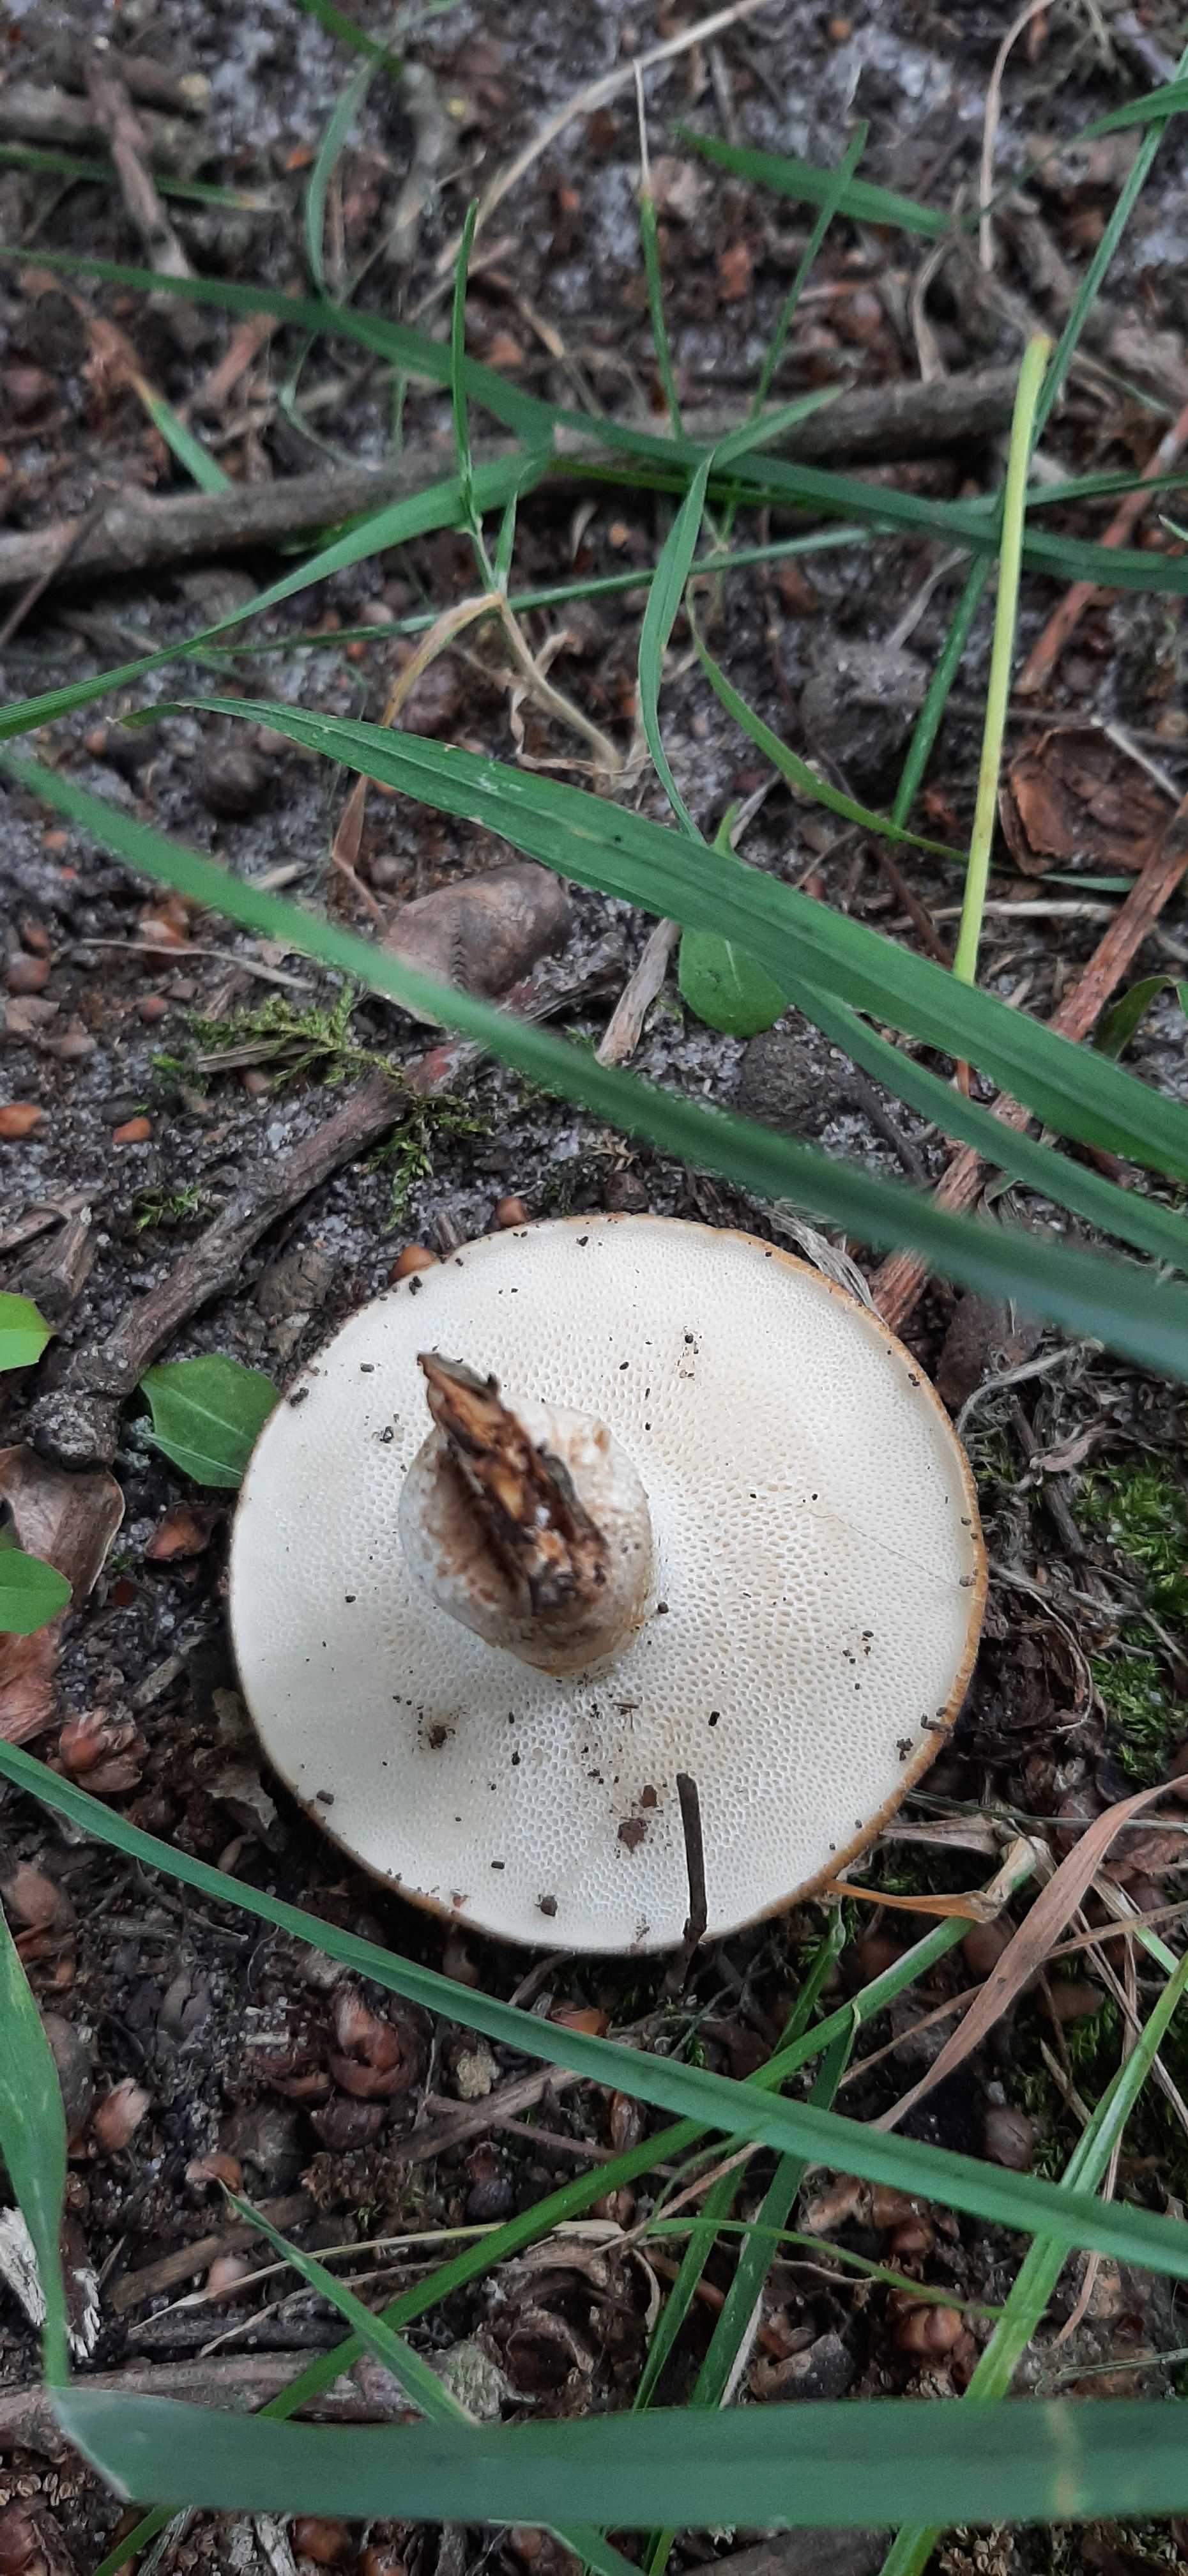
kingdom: Fungi
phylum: Basidiomycota
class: Agaricomycetes
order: Polyporales
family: Polyporaceae
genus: Polyporus
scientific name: Polyporus tuberaster
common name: knoldet stilkporesvamp
